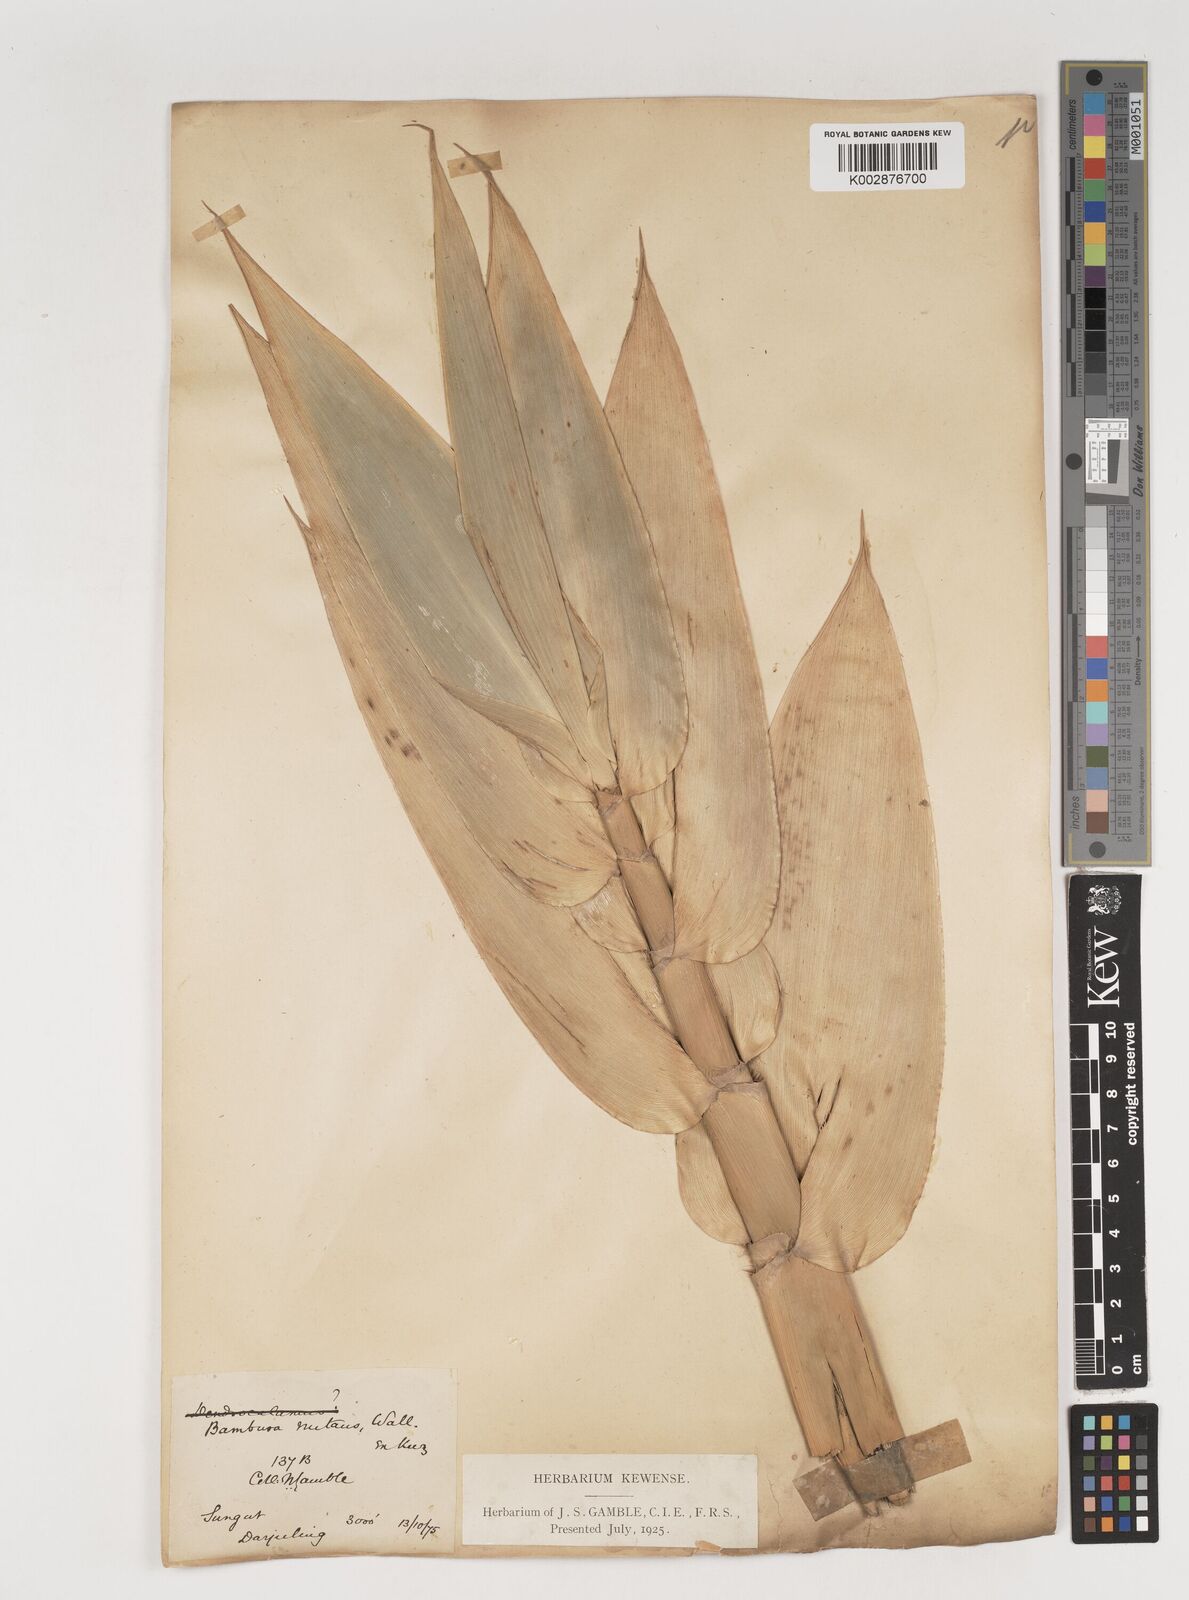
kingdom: Plantae
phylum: Tracheophyta
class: Liliopsida
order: Poales
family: Poaceae
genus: Bambusa
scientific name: Bambusa nutans
